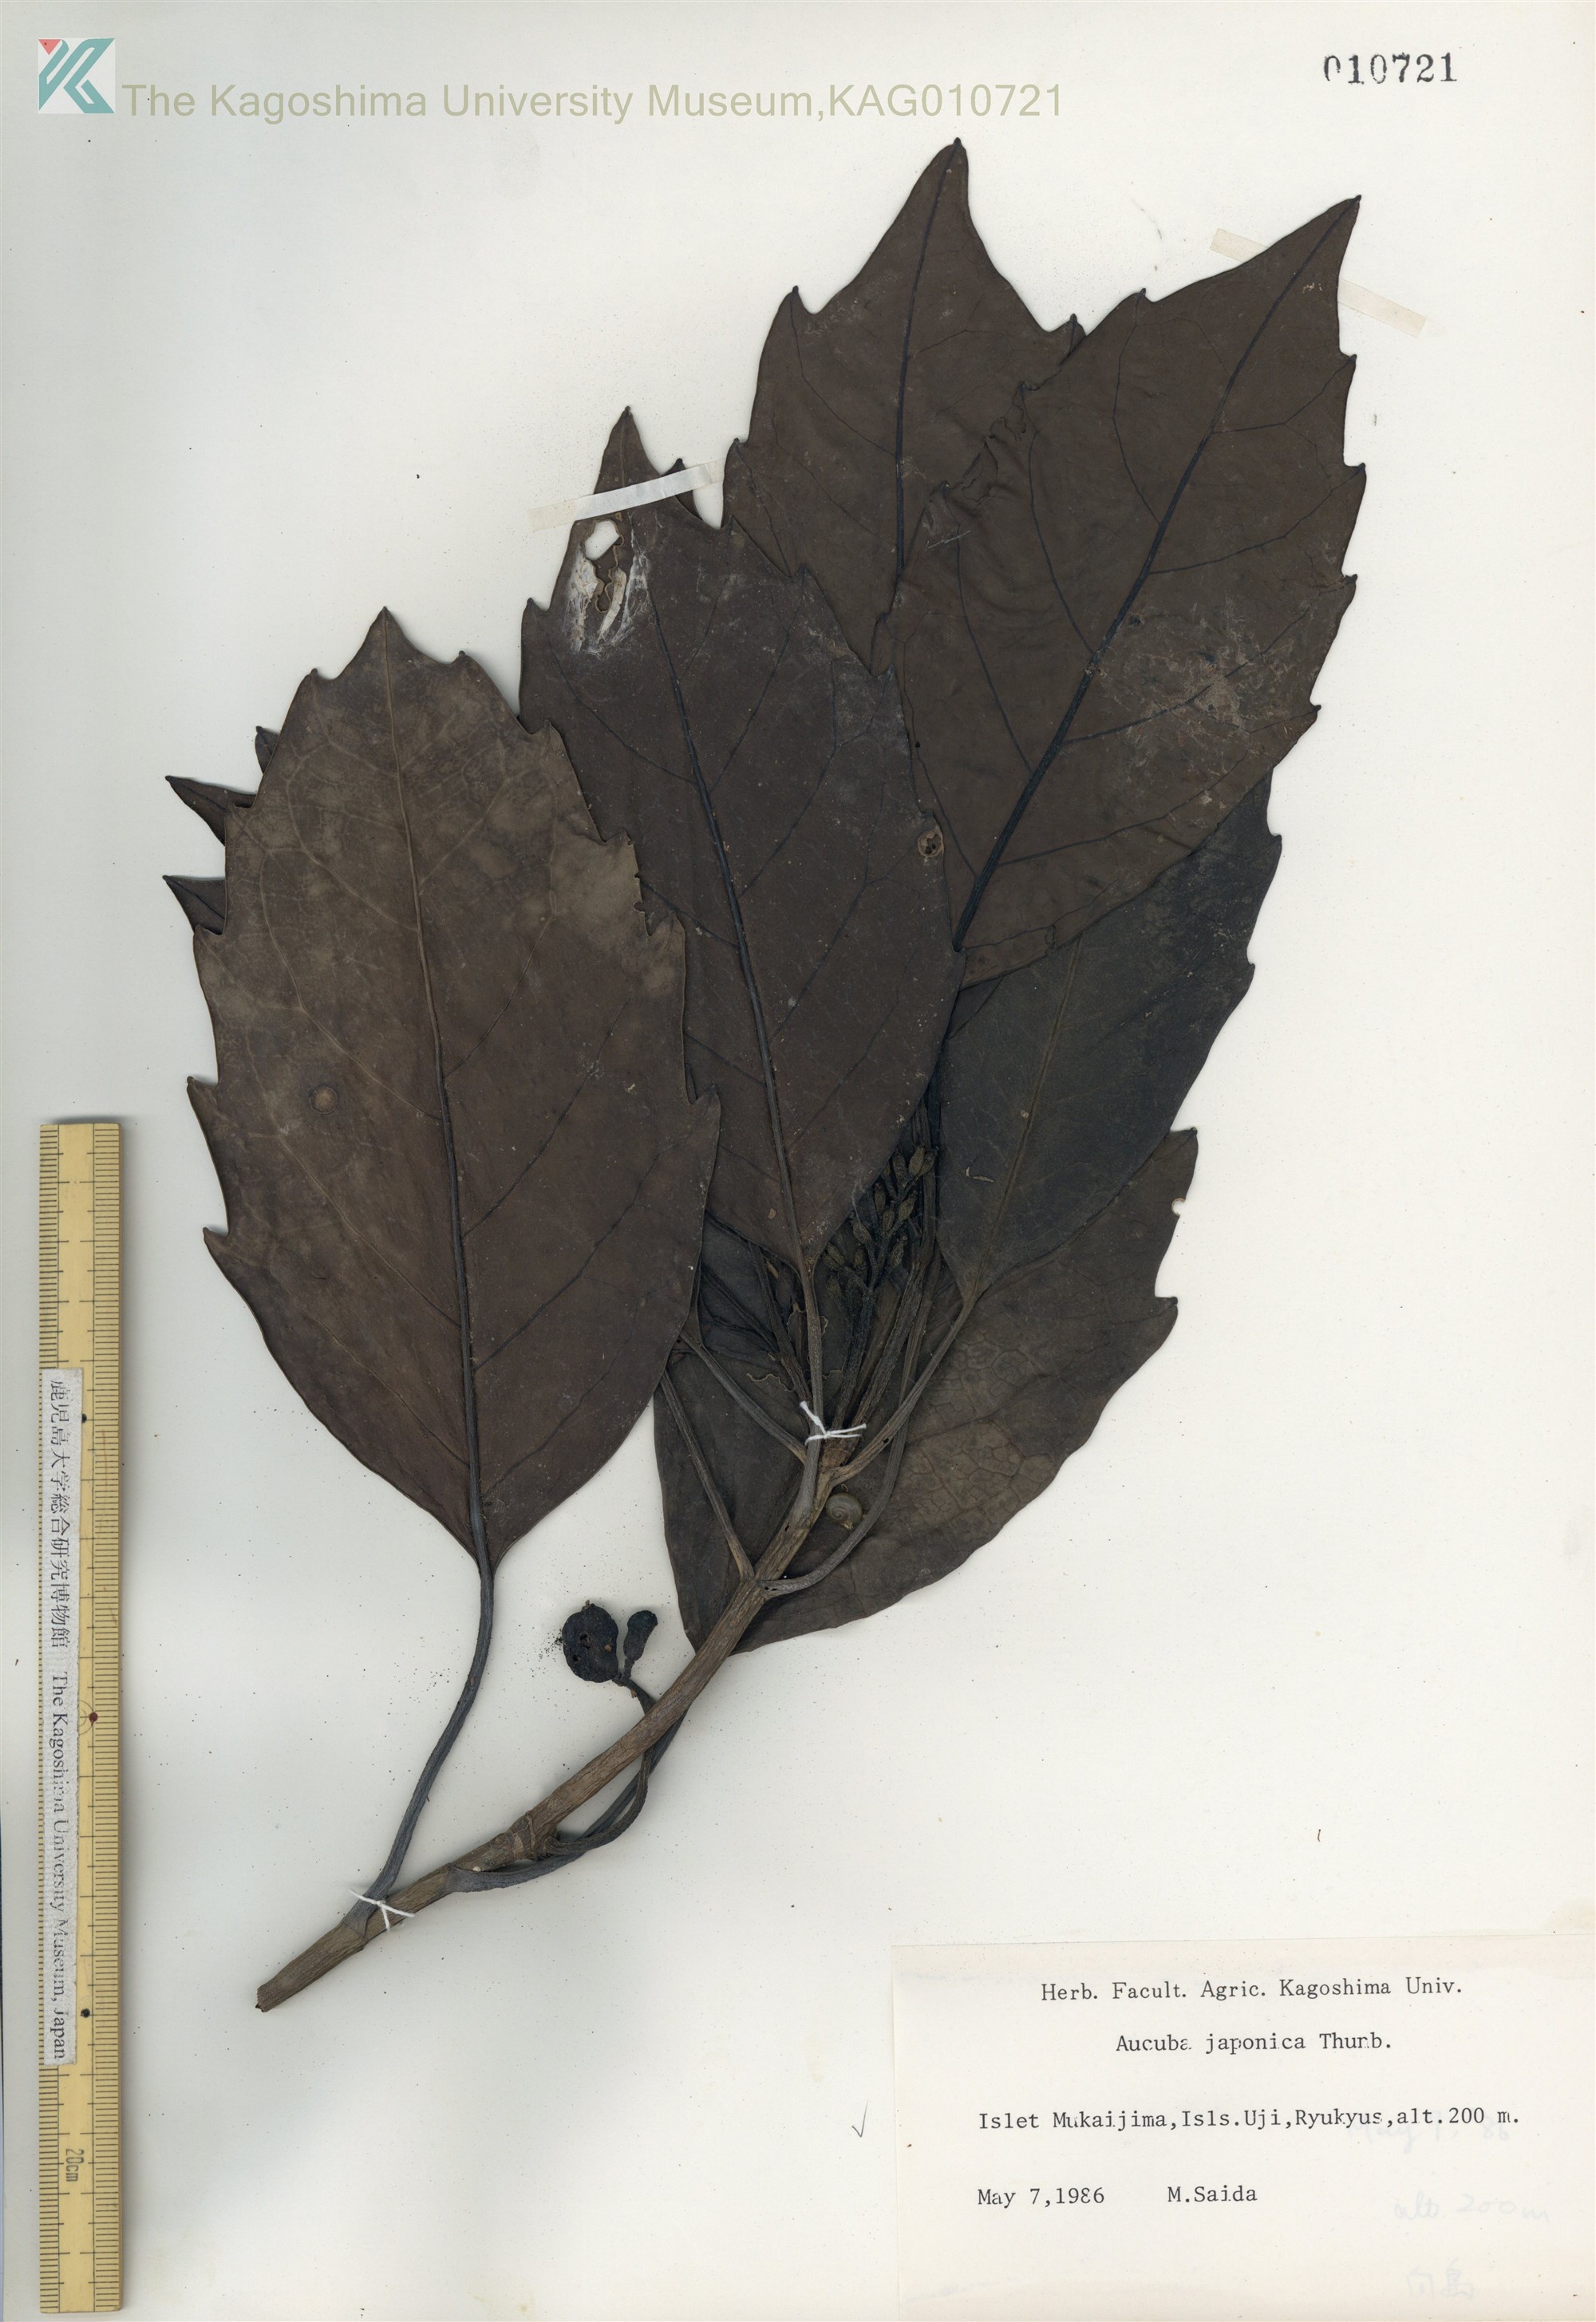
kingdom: Plantae
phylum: Tracheophyta
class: Magnoliopsida
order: Garryales
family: Garryaceae
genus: Aucuba
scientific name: Aucuba japonica
